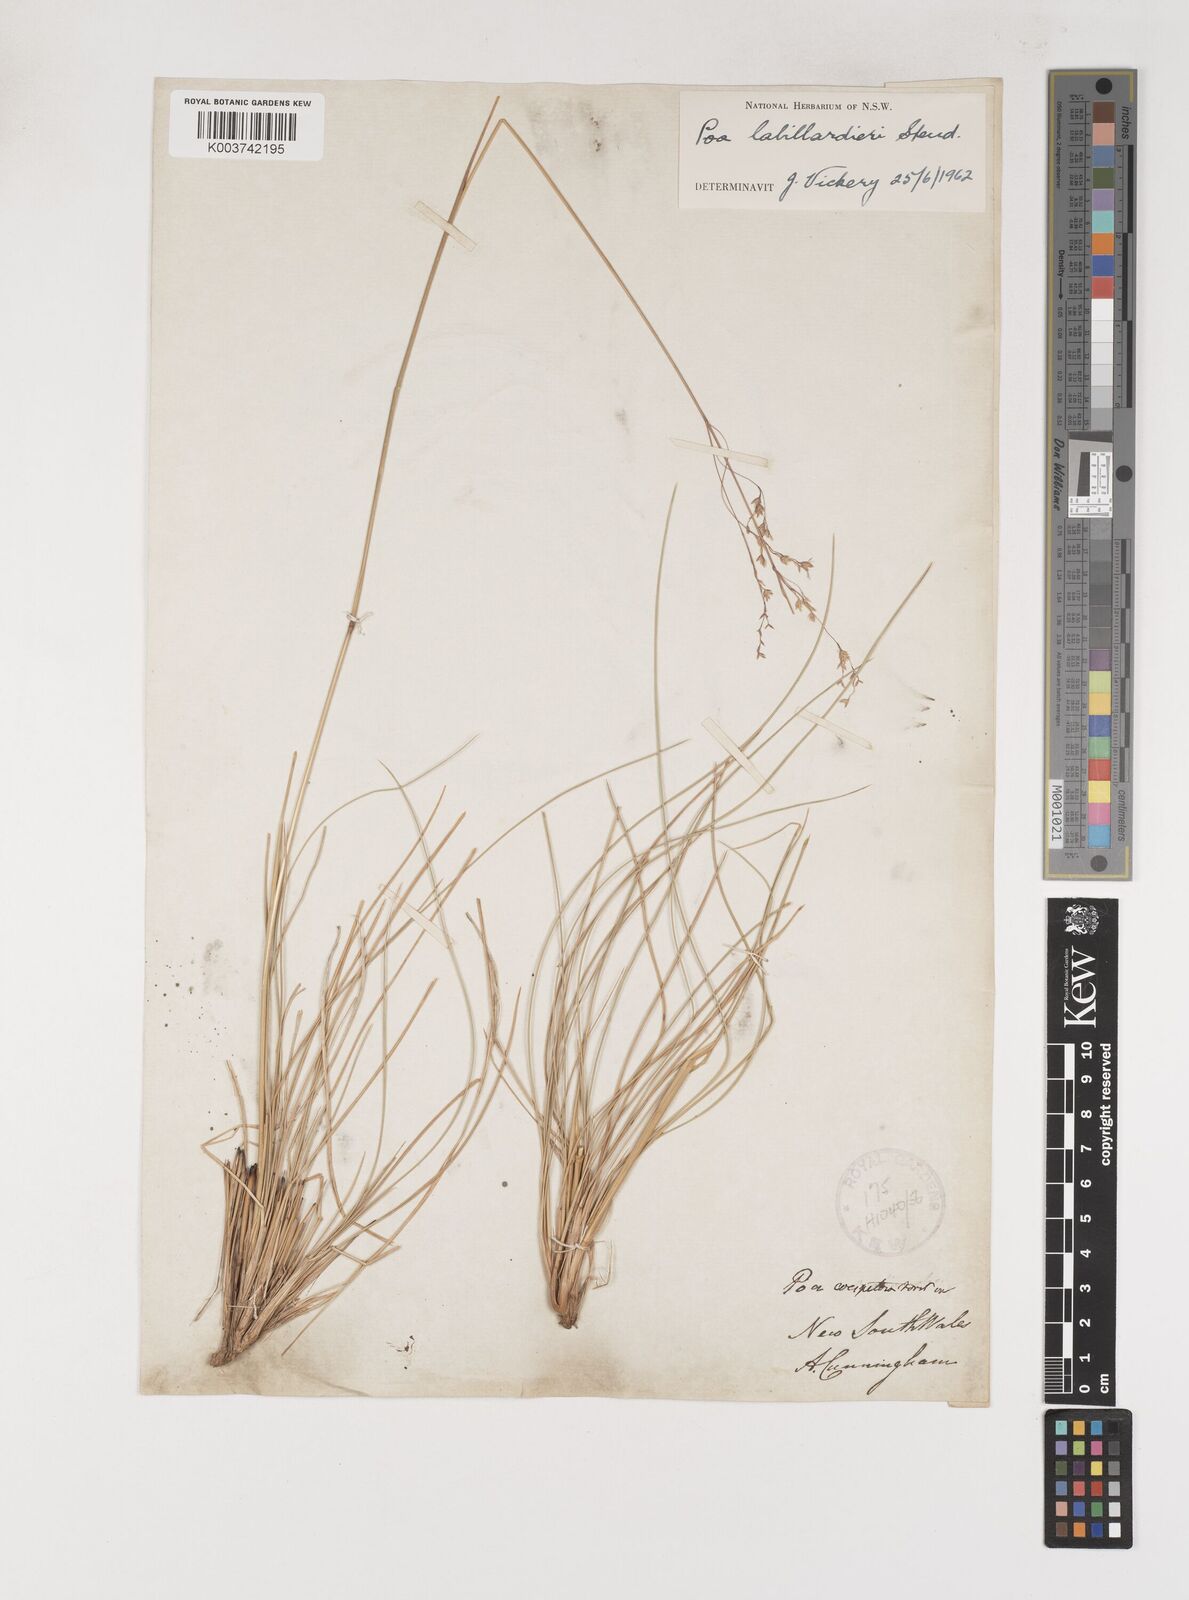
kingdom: Plantae
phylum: Tracheophyta
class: Liliopsida
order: Poales
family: Poaceae
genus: Poa
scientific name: Poa labillardierei
